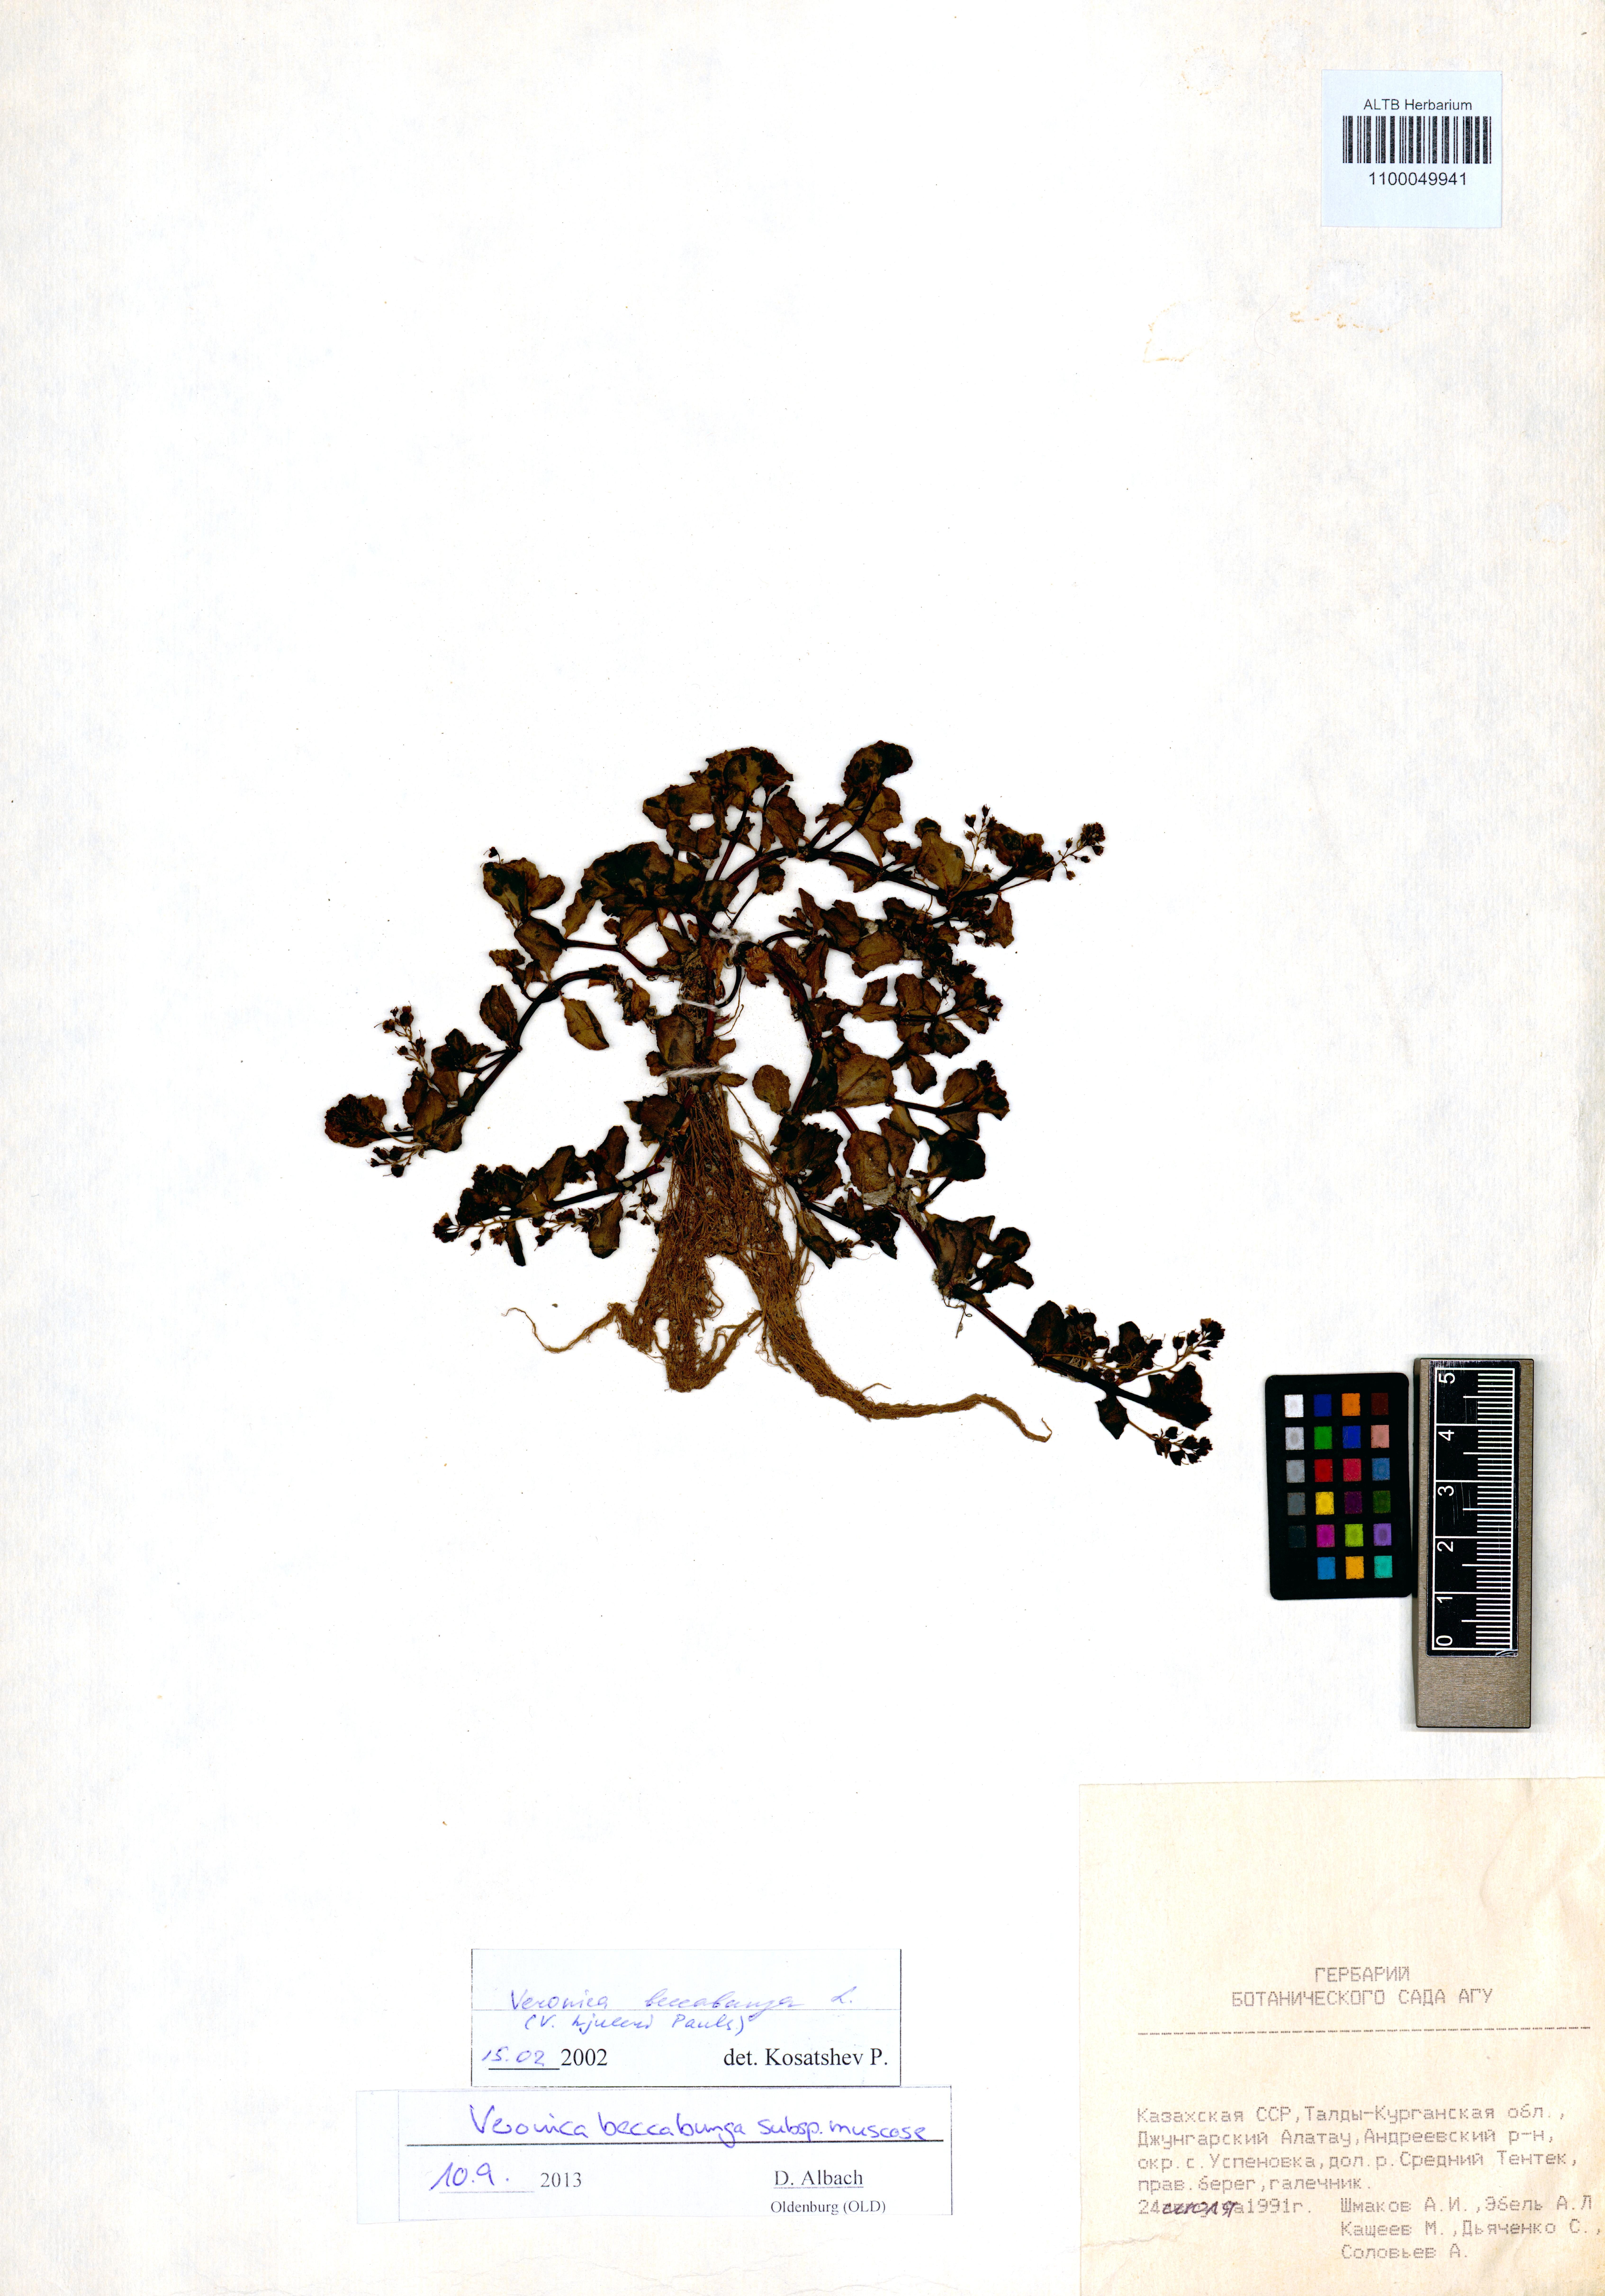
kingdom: Plantae
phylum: Tracheophyta
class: Magnoliopsida
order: Lamiales
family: Plantaginaceae
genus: Veronica
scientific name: Veronica beccabunga
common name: Brooklime
